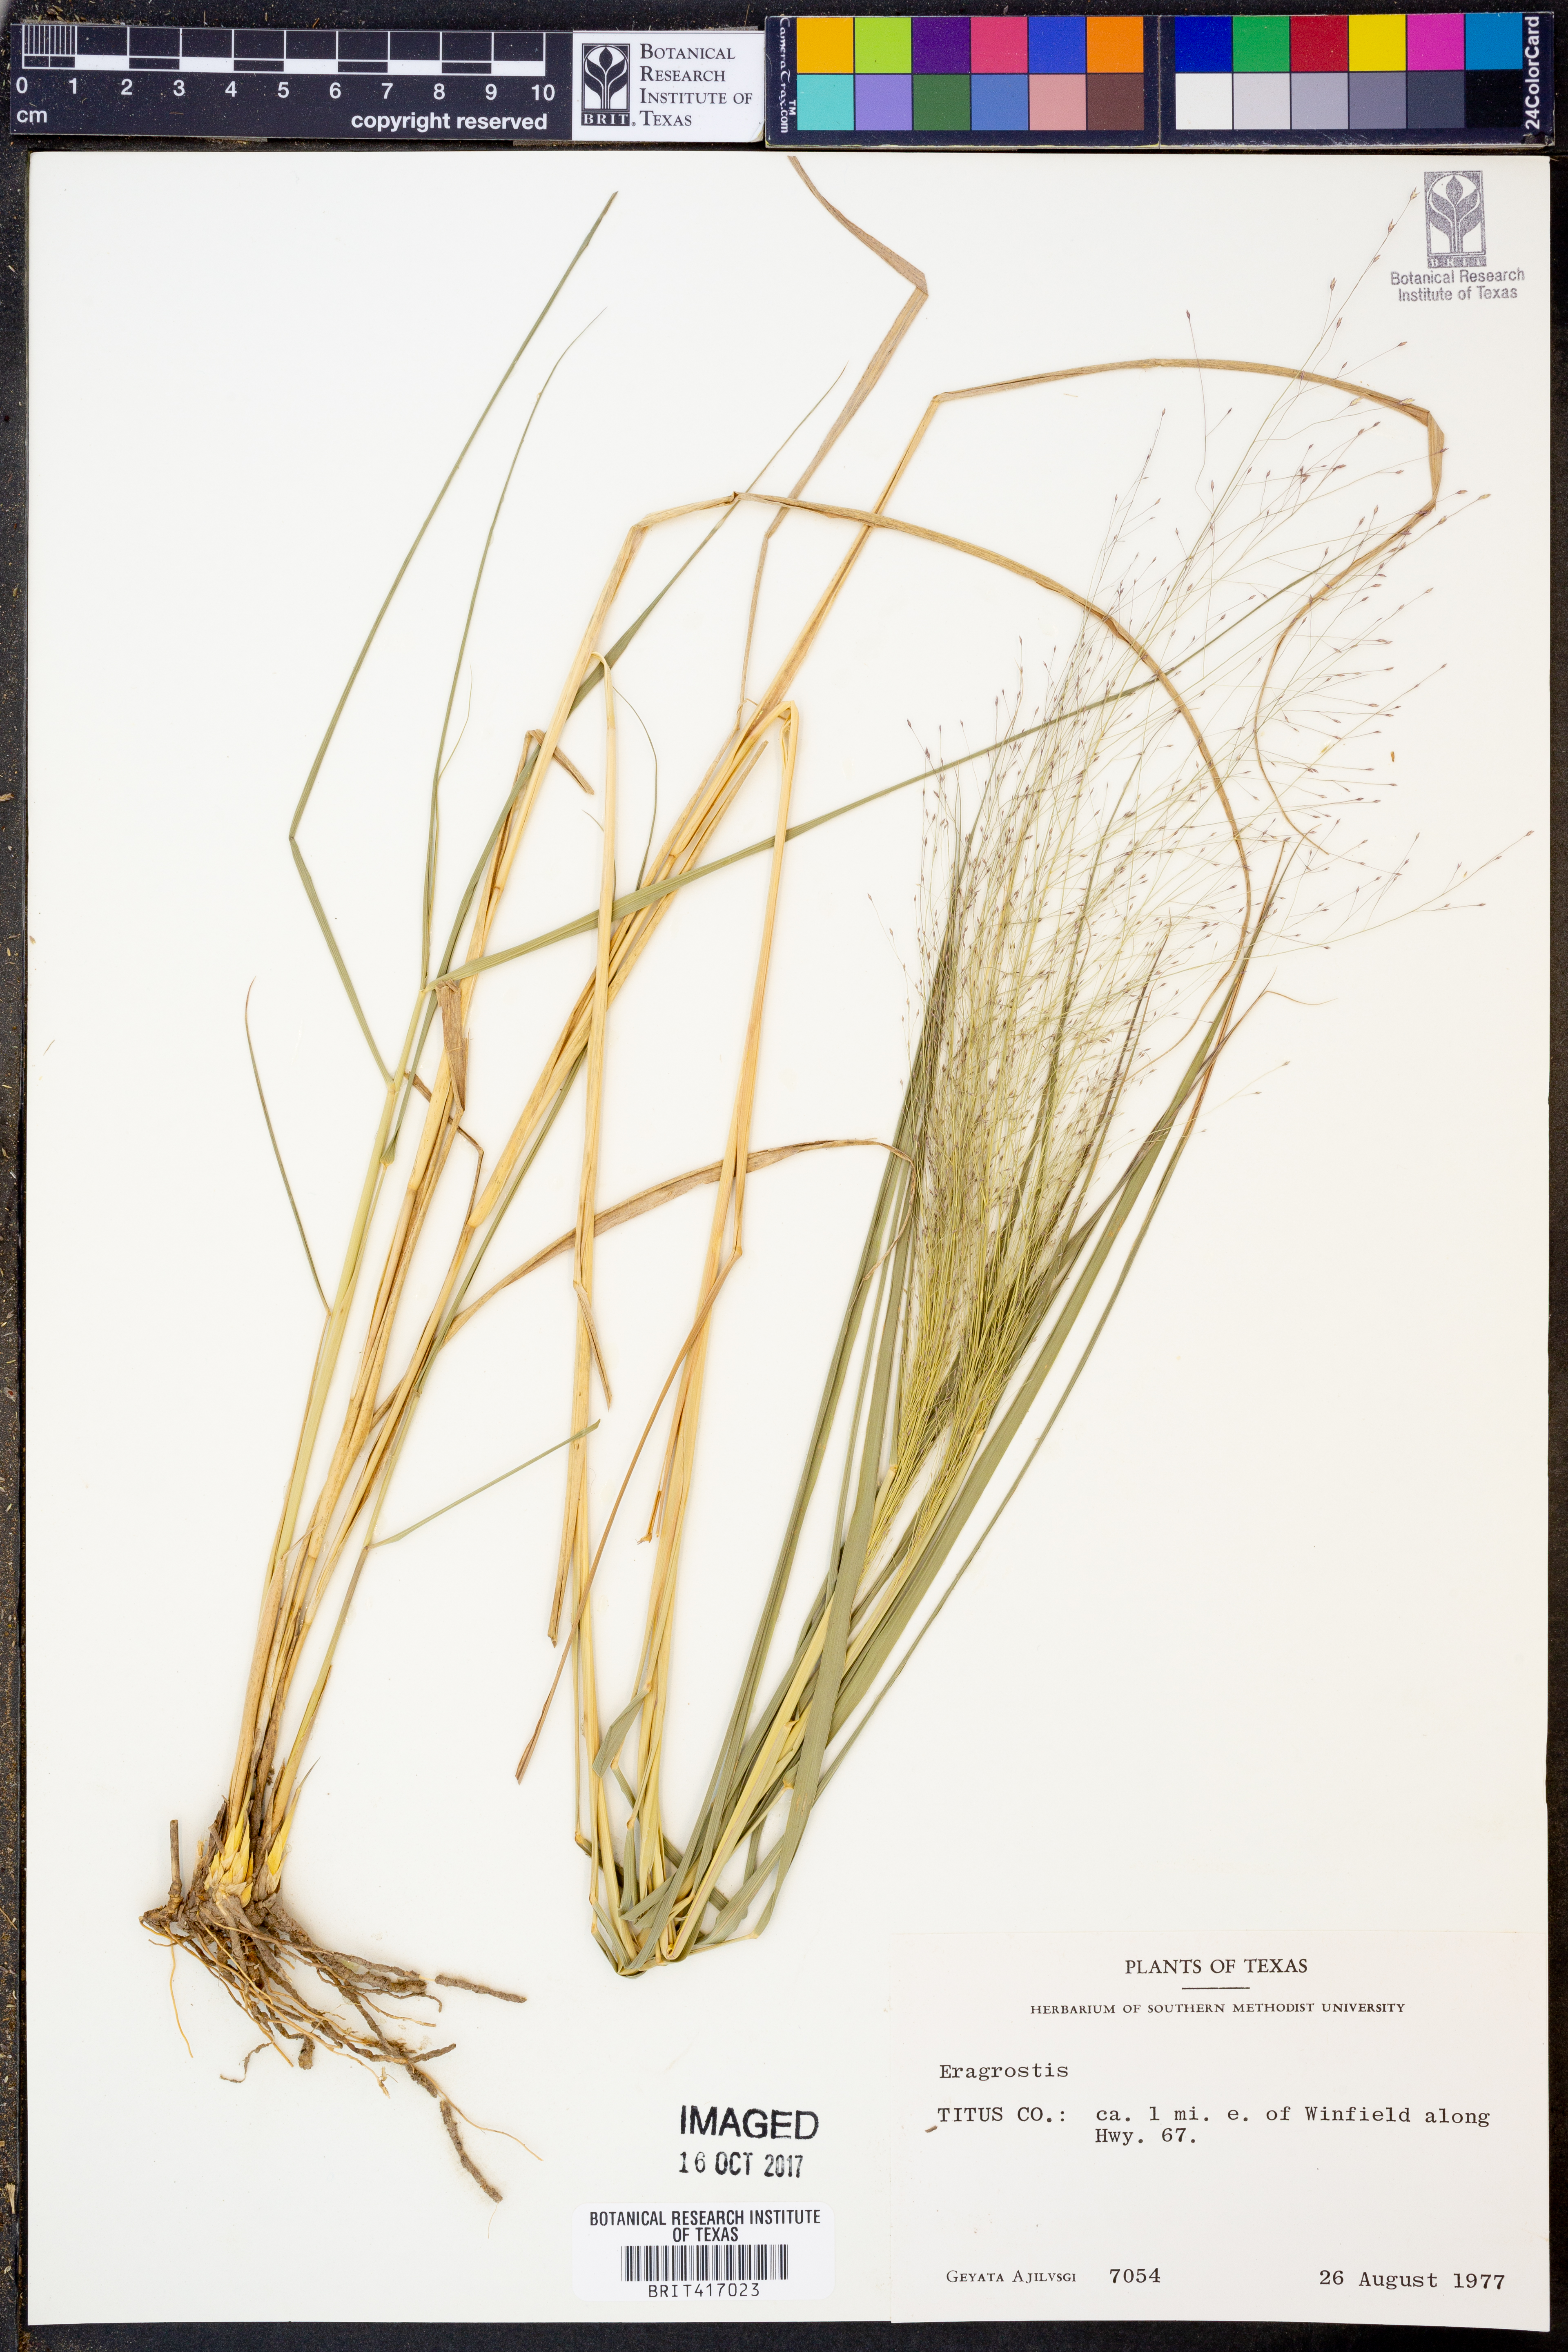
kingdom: Plantae
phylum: Tracheophyta
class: Liliopsida
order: Poales
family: Poaceae
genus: Eragrostis
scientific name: Eragrostis
